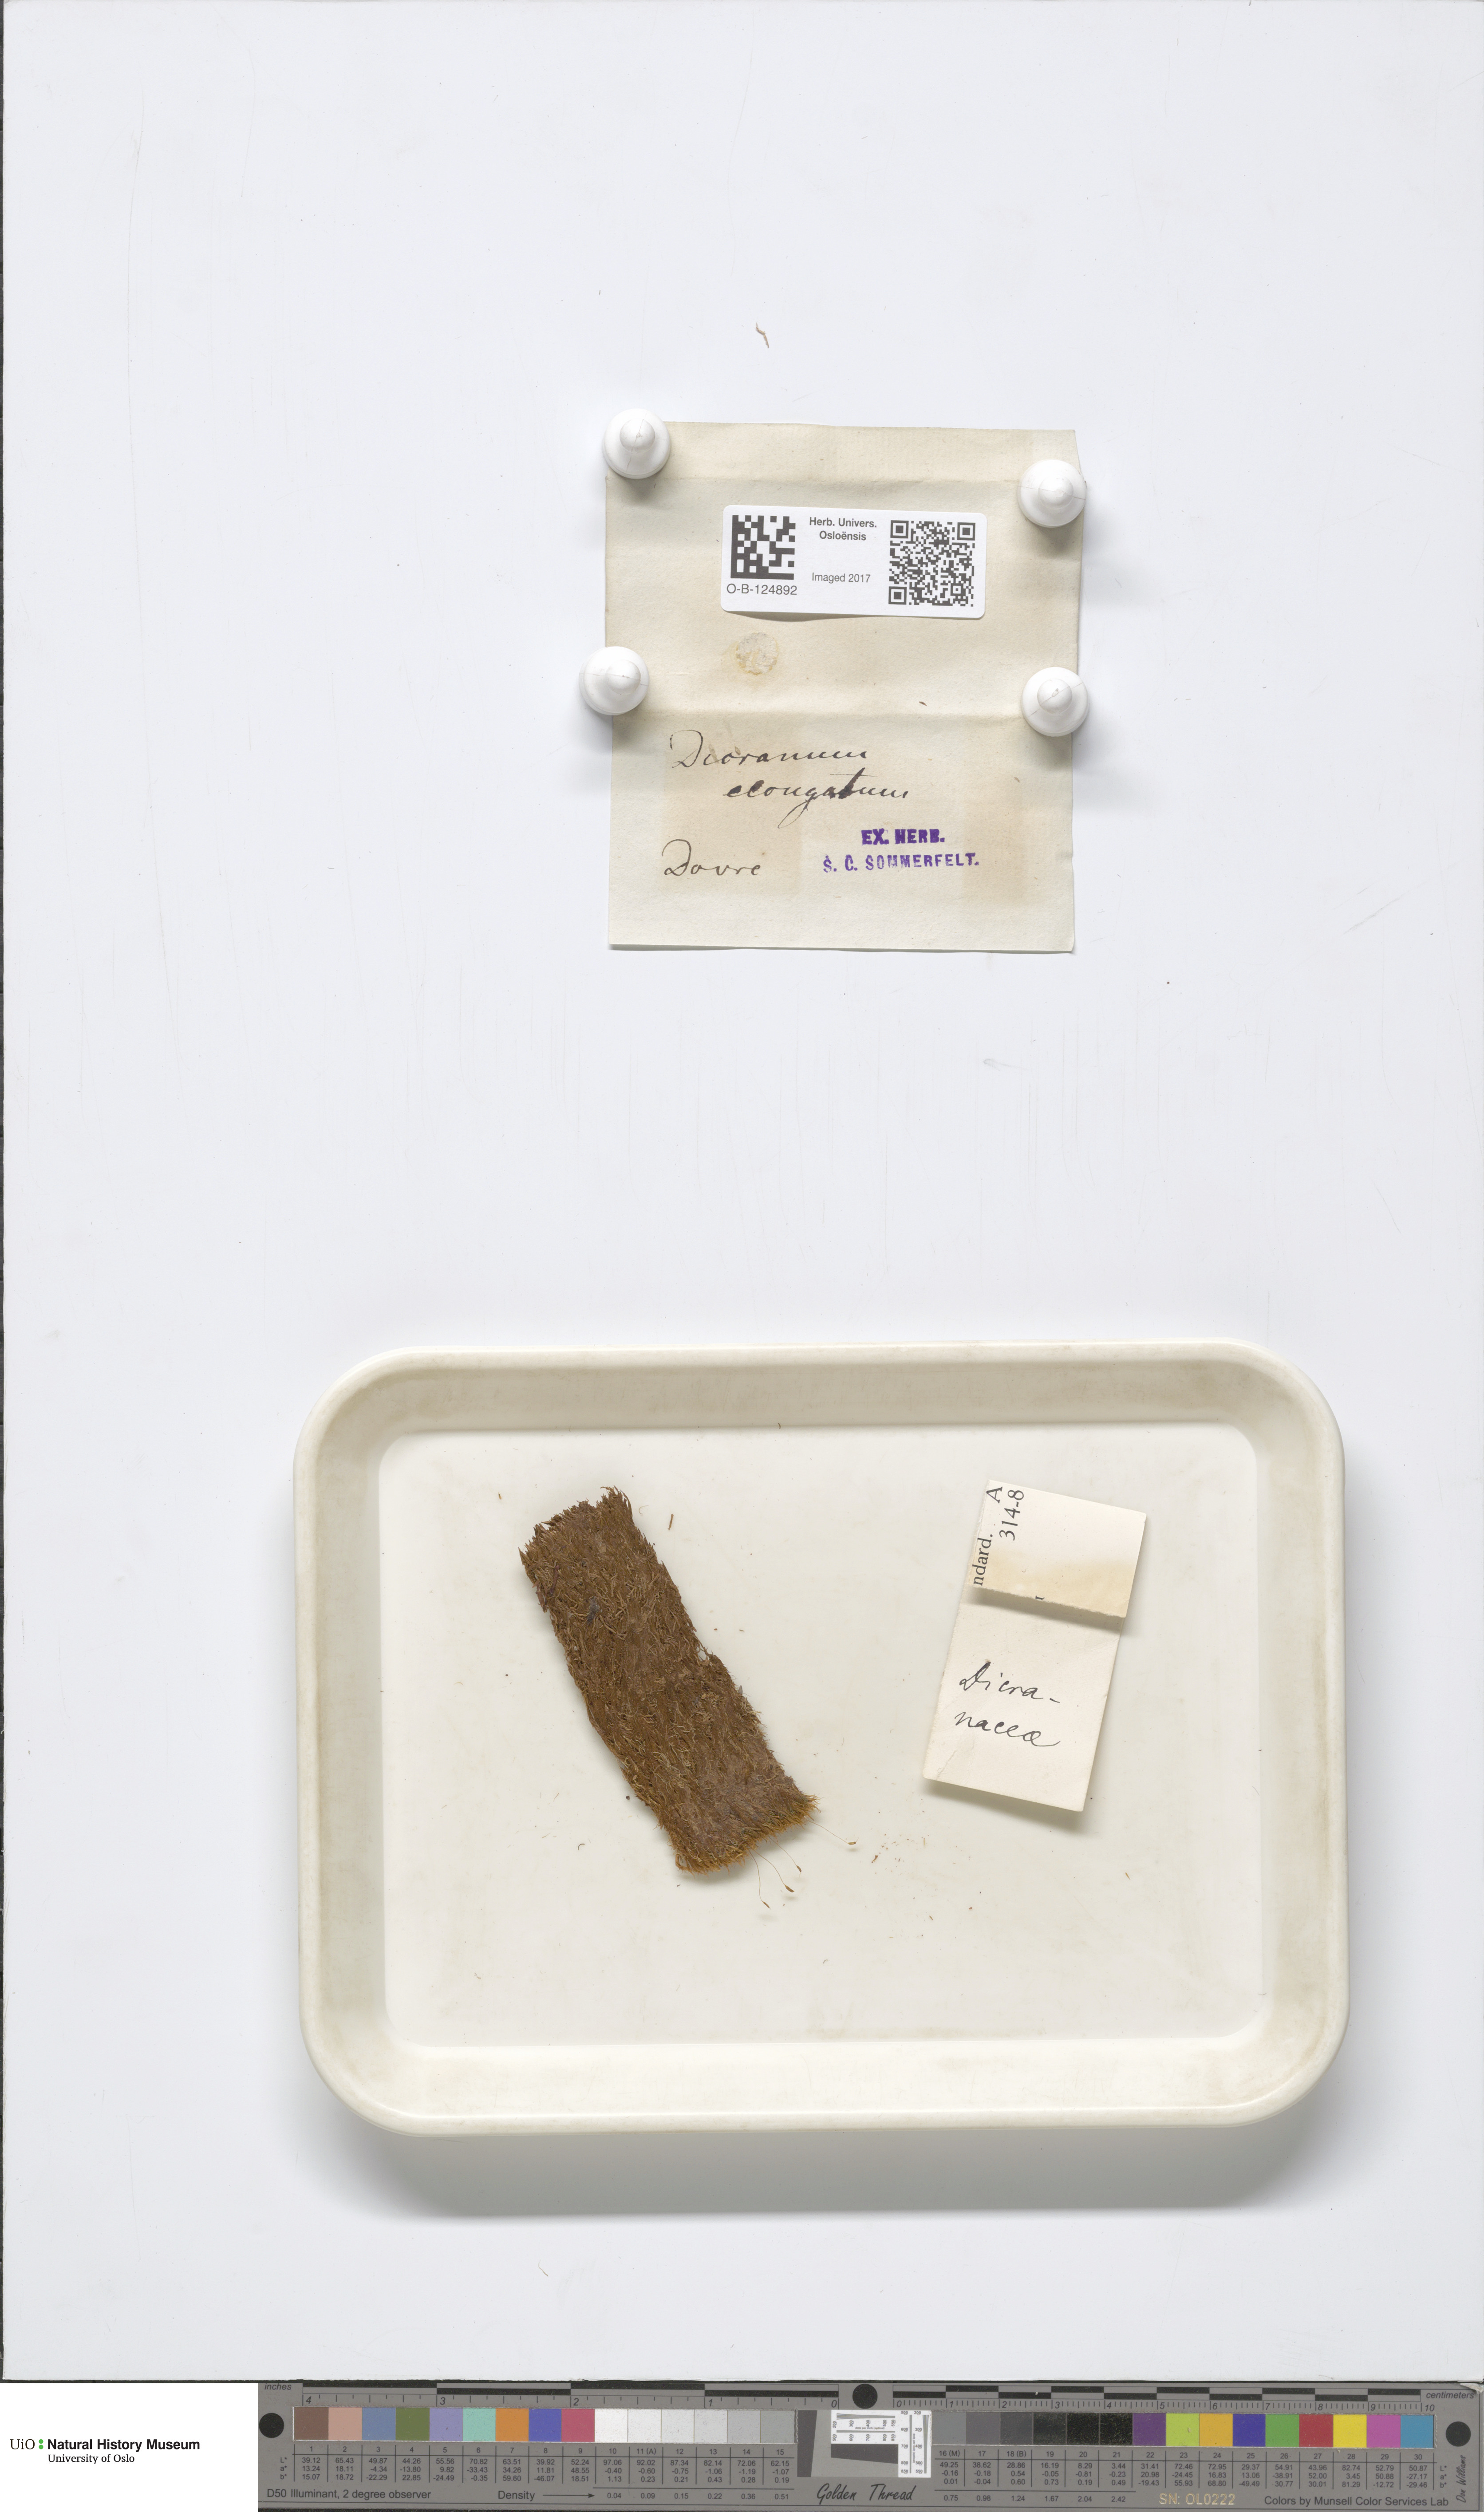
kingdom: Plantae
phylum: Bryophyta
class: Bryopsida
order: Dicranales
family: Dicranaceae
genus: Dicranum
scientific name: Dicranum elongatum
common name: Long-forked broom moss
